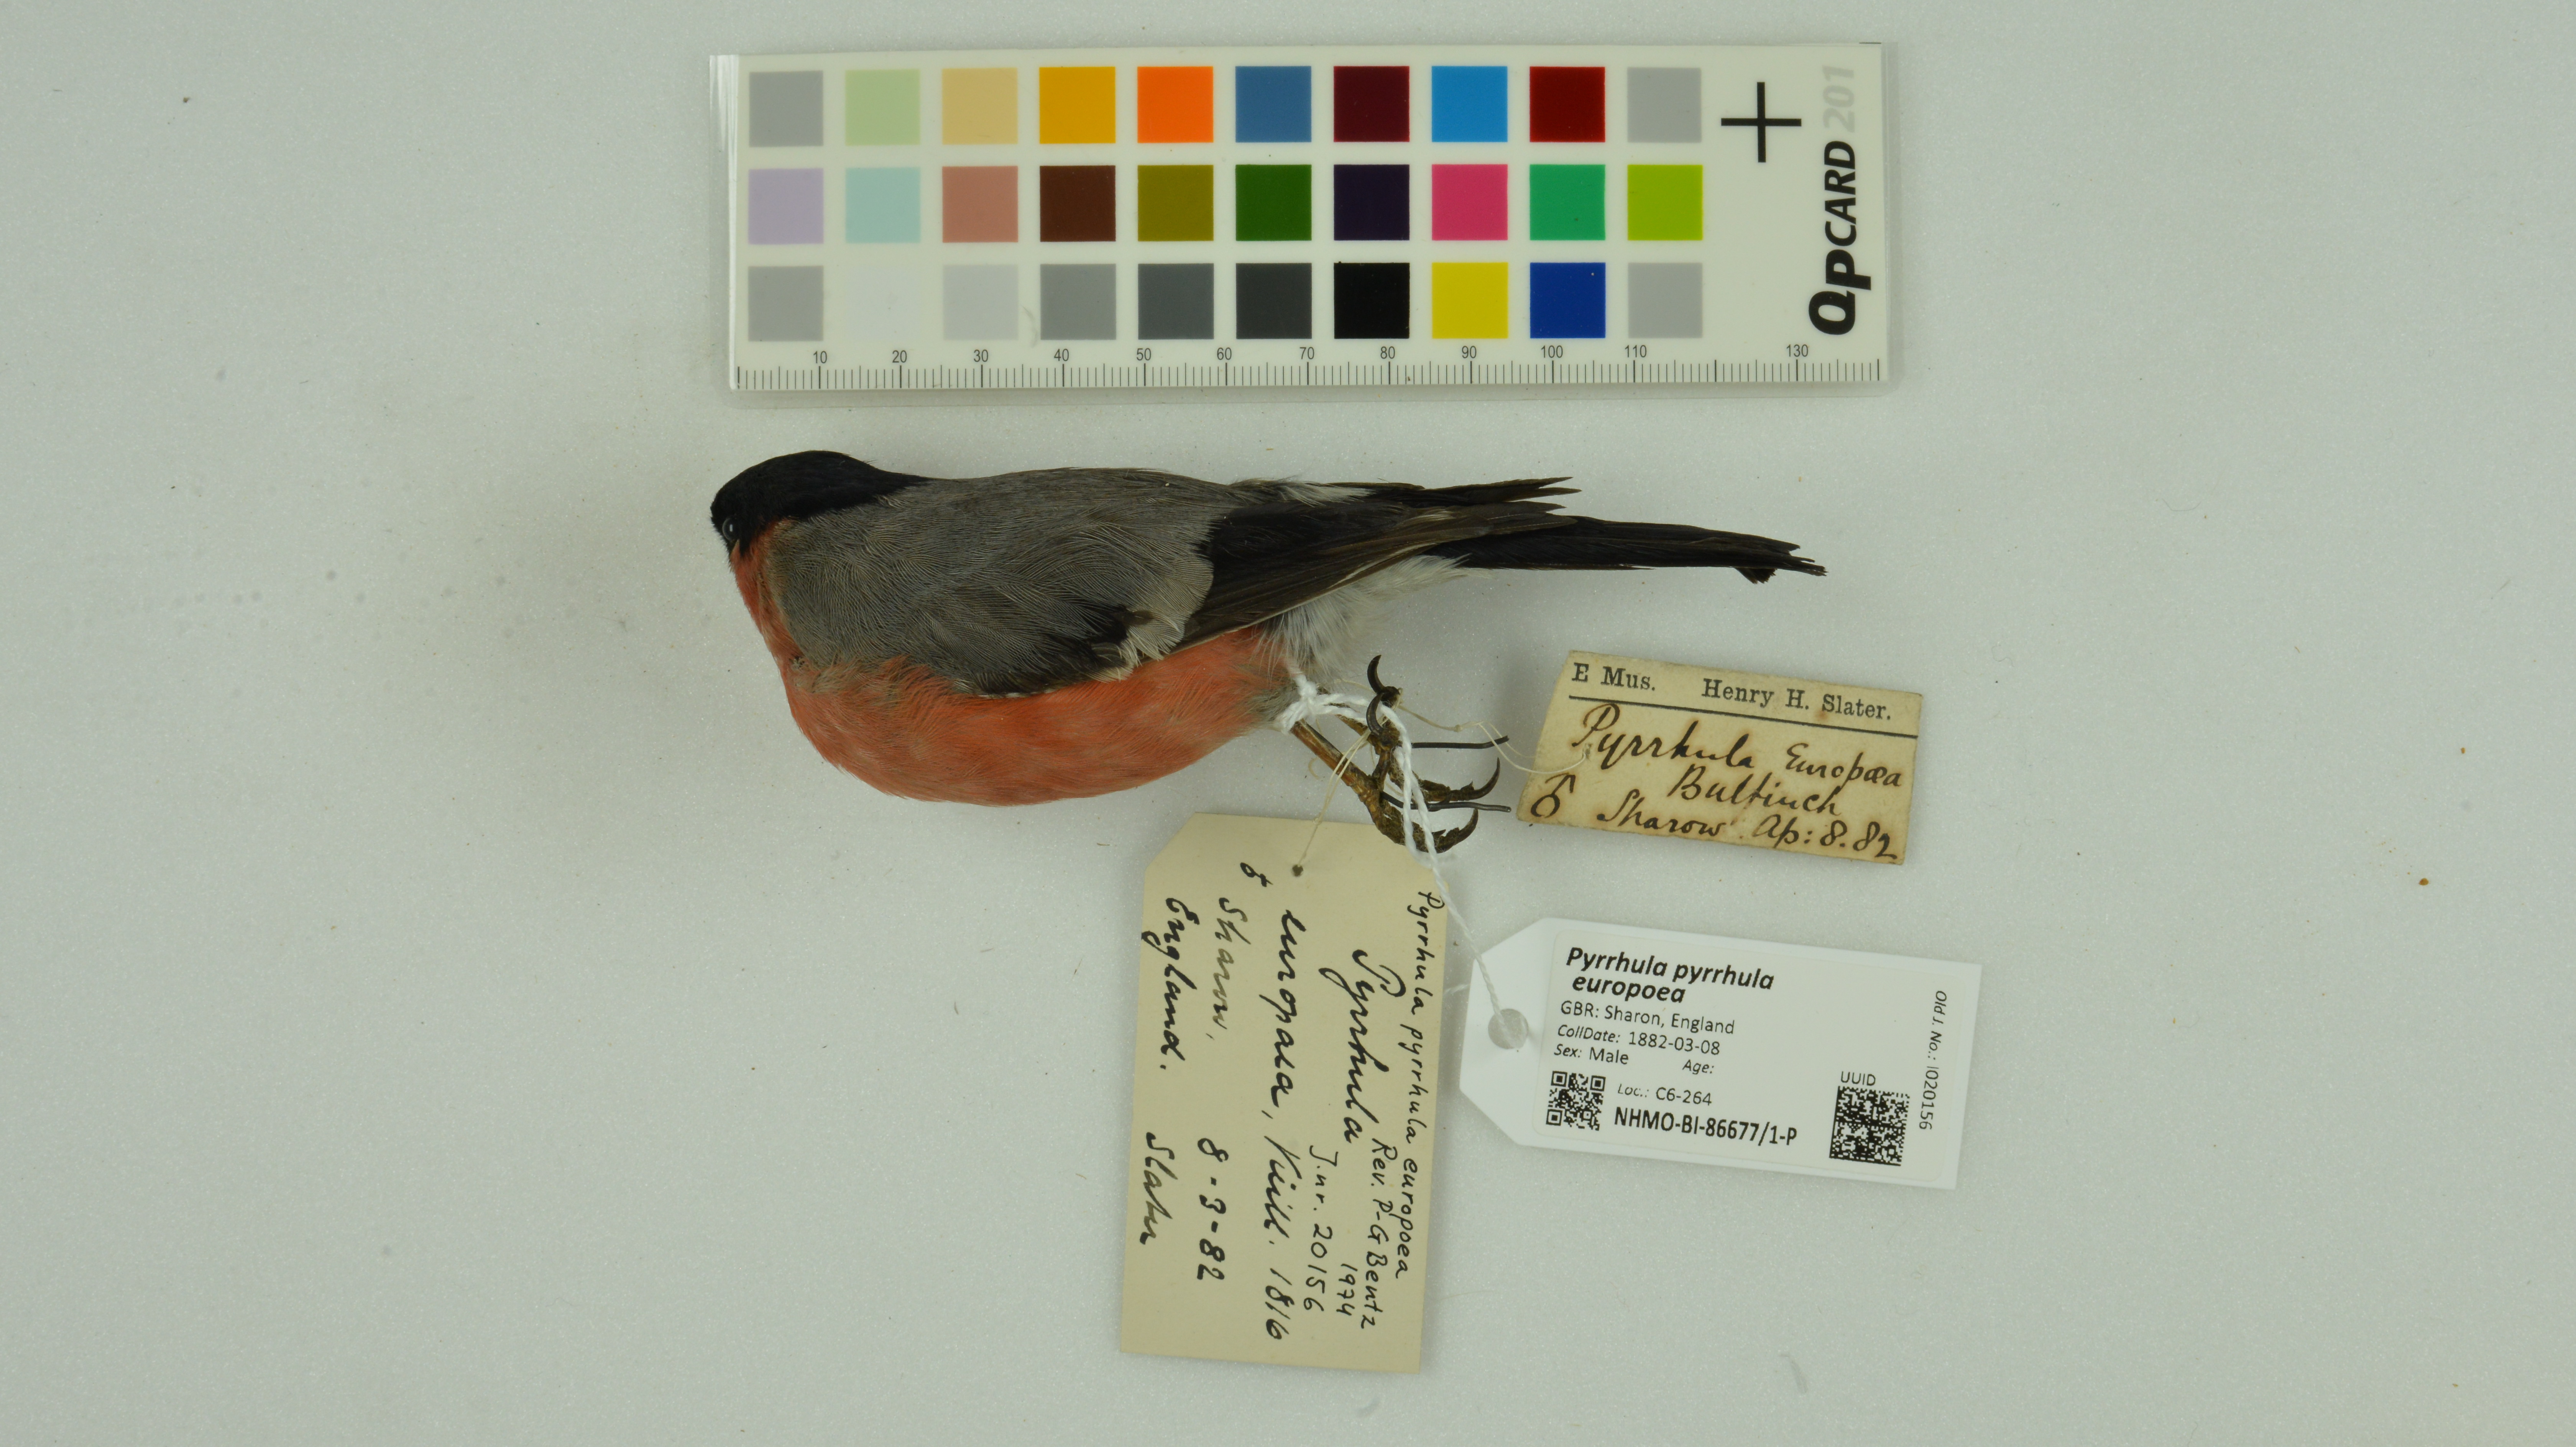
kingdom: Animalia
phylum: Chordata
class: Aves
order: Passeriformes
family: Fringillidae
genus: Pyrrhula
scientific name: Pyrrhula pyrrhula
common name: Eurasian bullfinch
